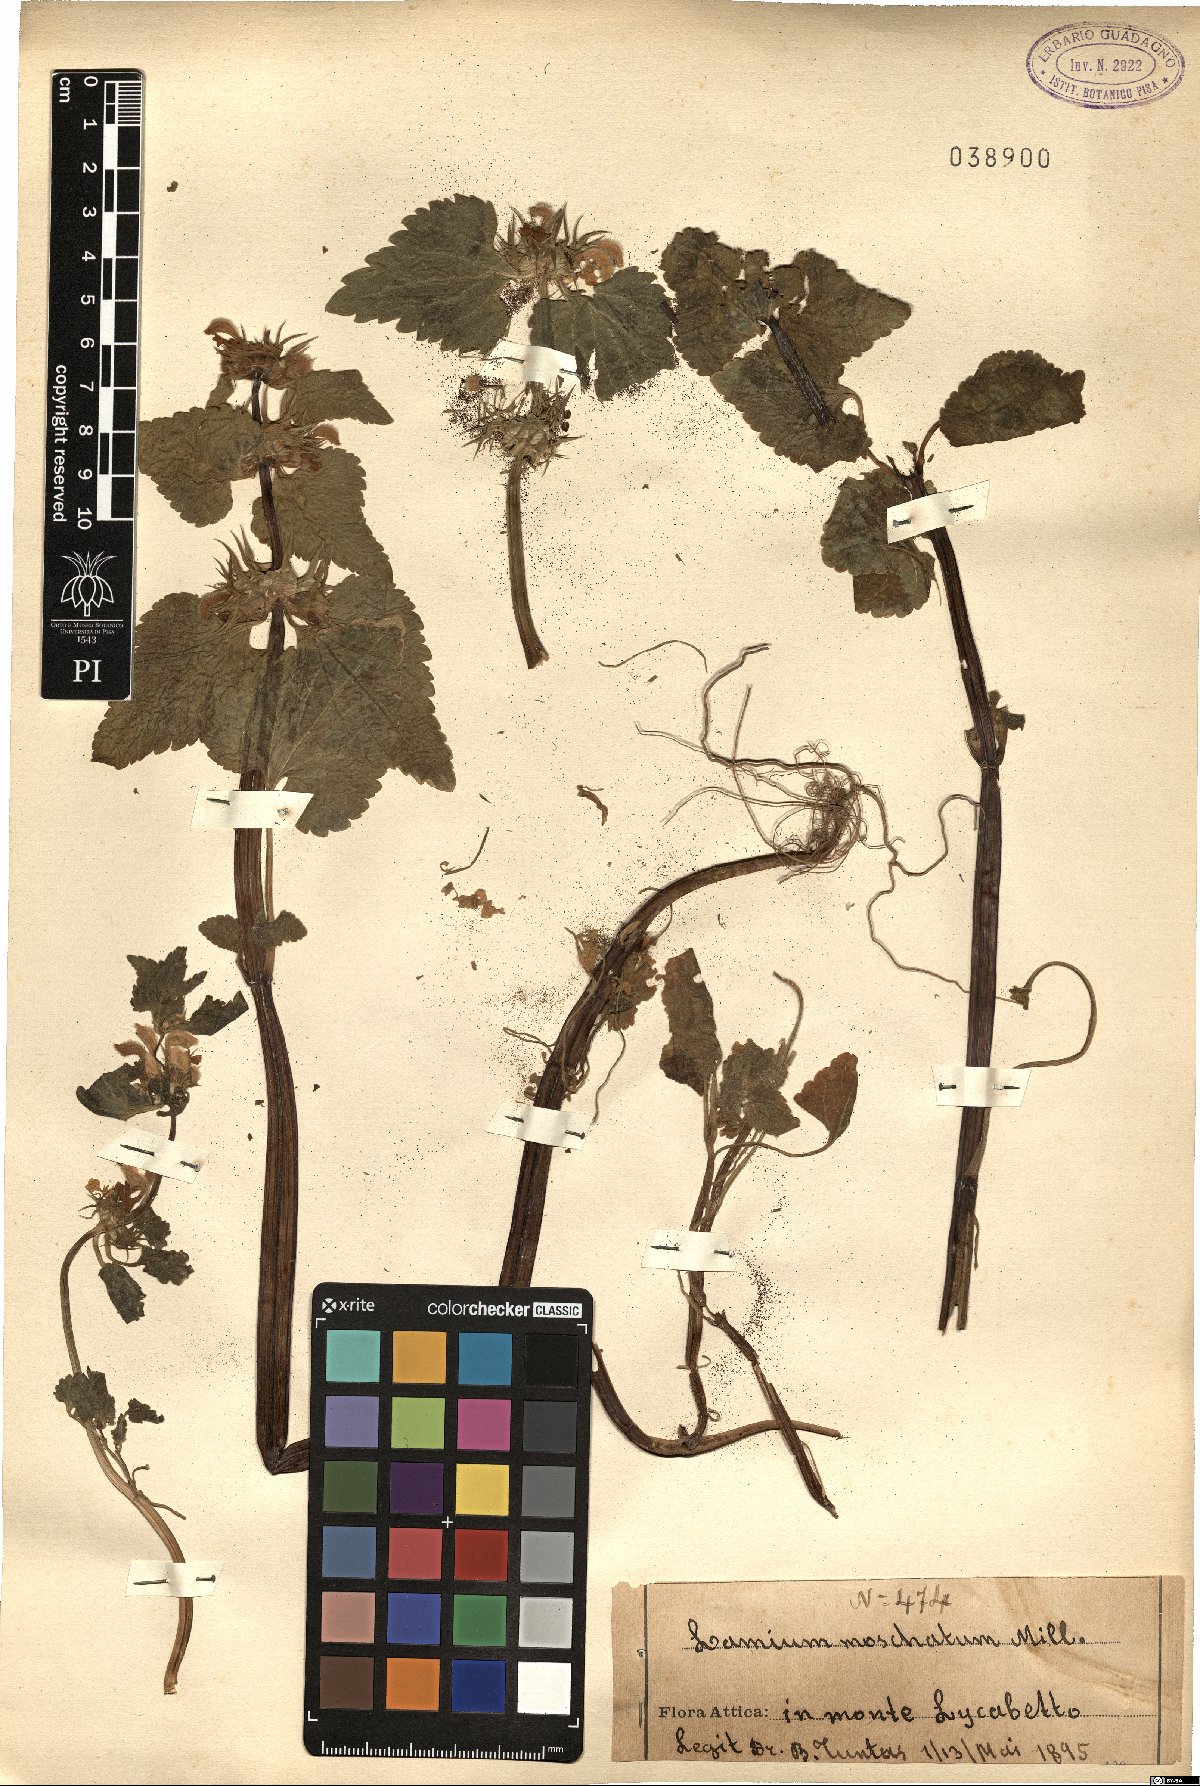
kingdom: Plantae
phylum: Tracheophyta
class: Magnoliopsida
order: Lamiales
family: Lamiaceae
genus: Lamium
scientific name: Lamium moschatum
